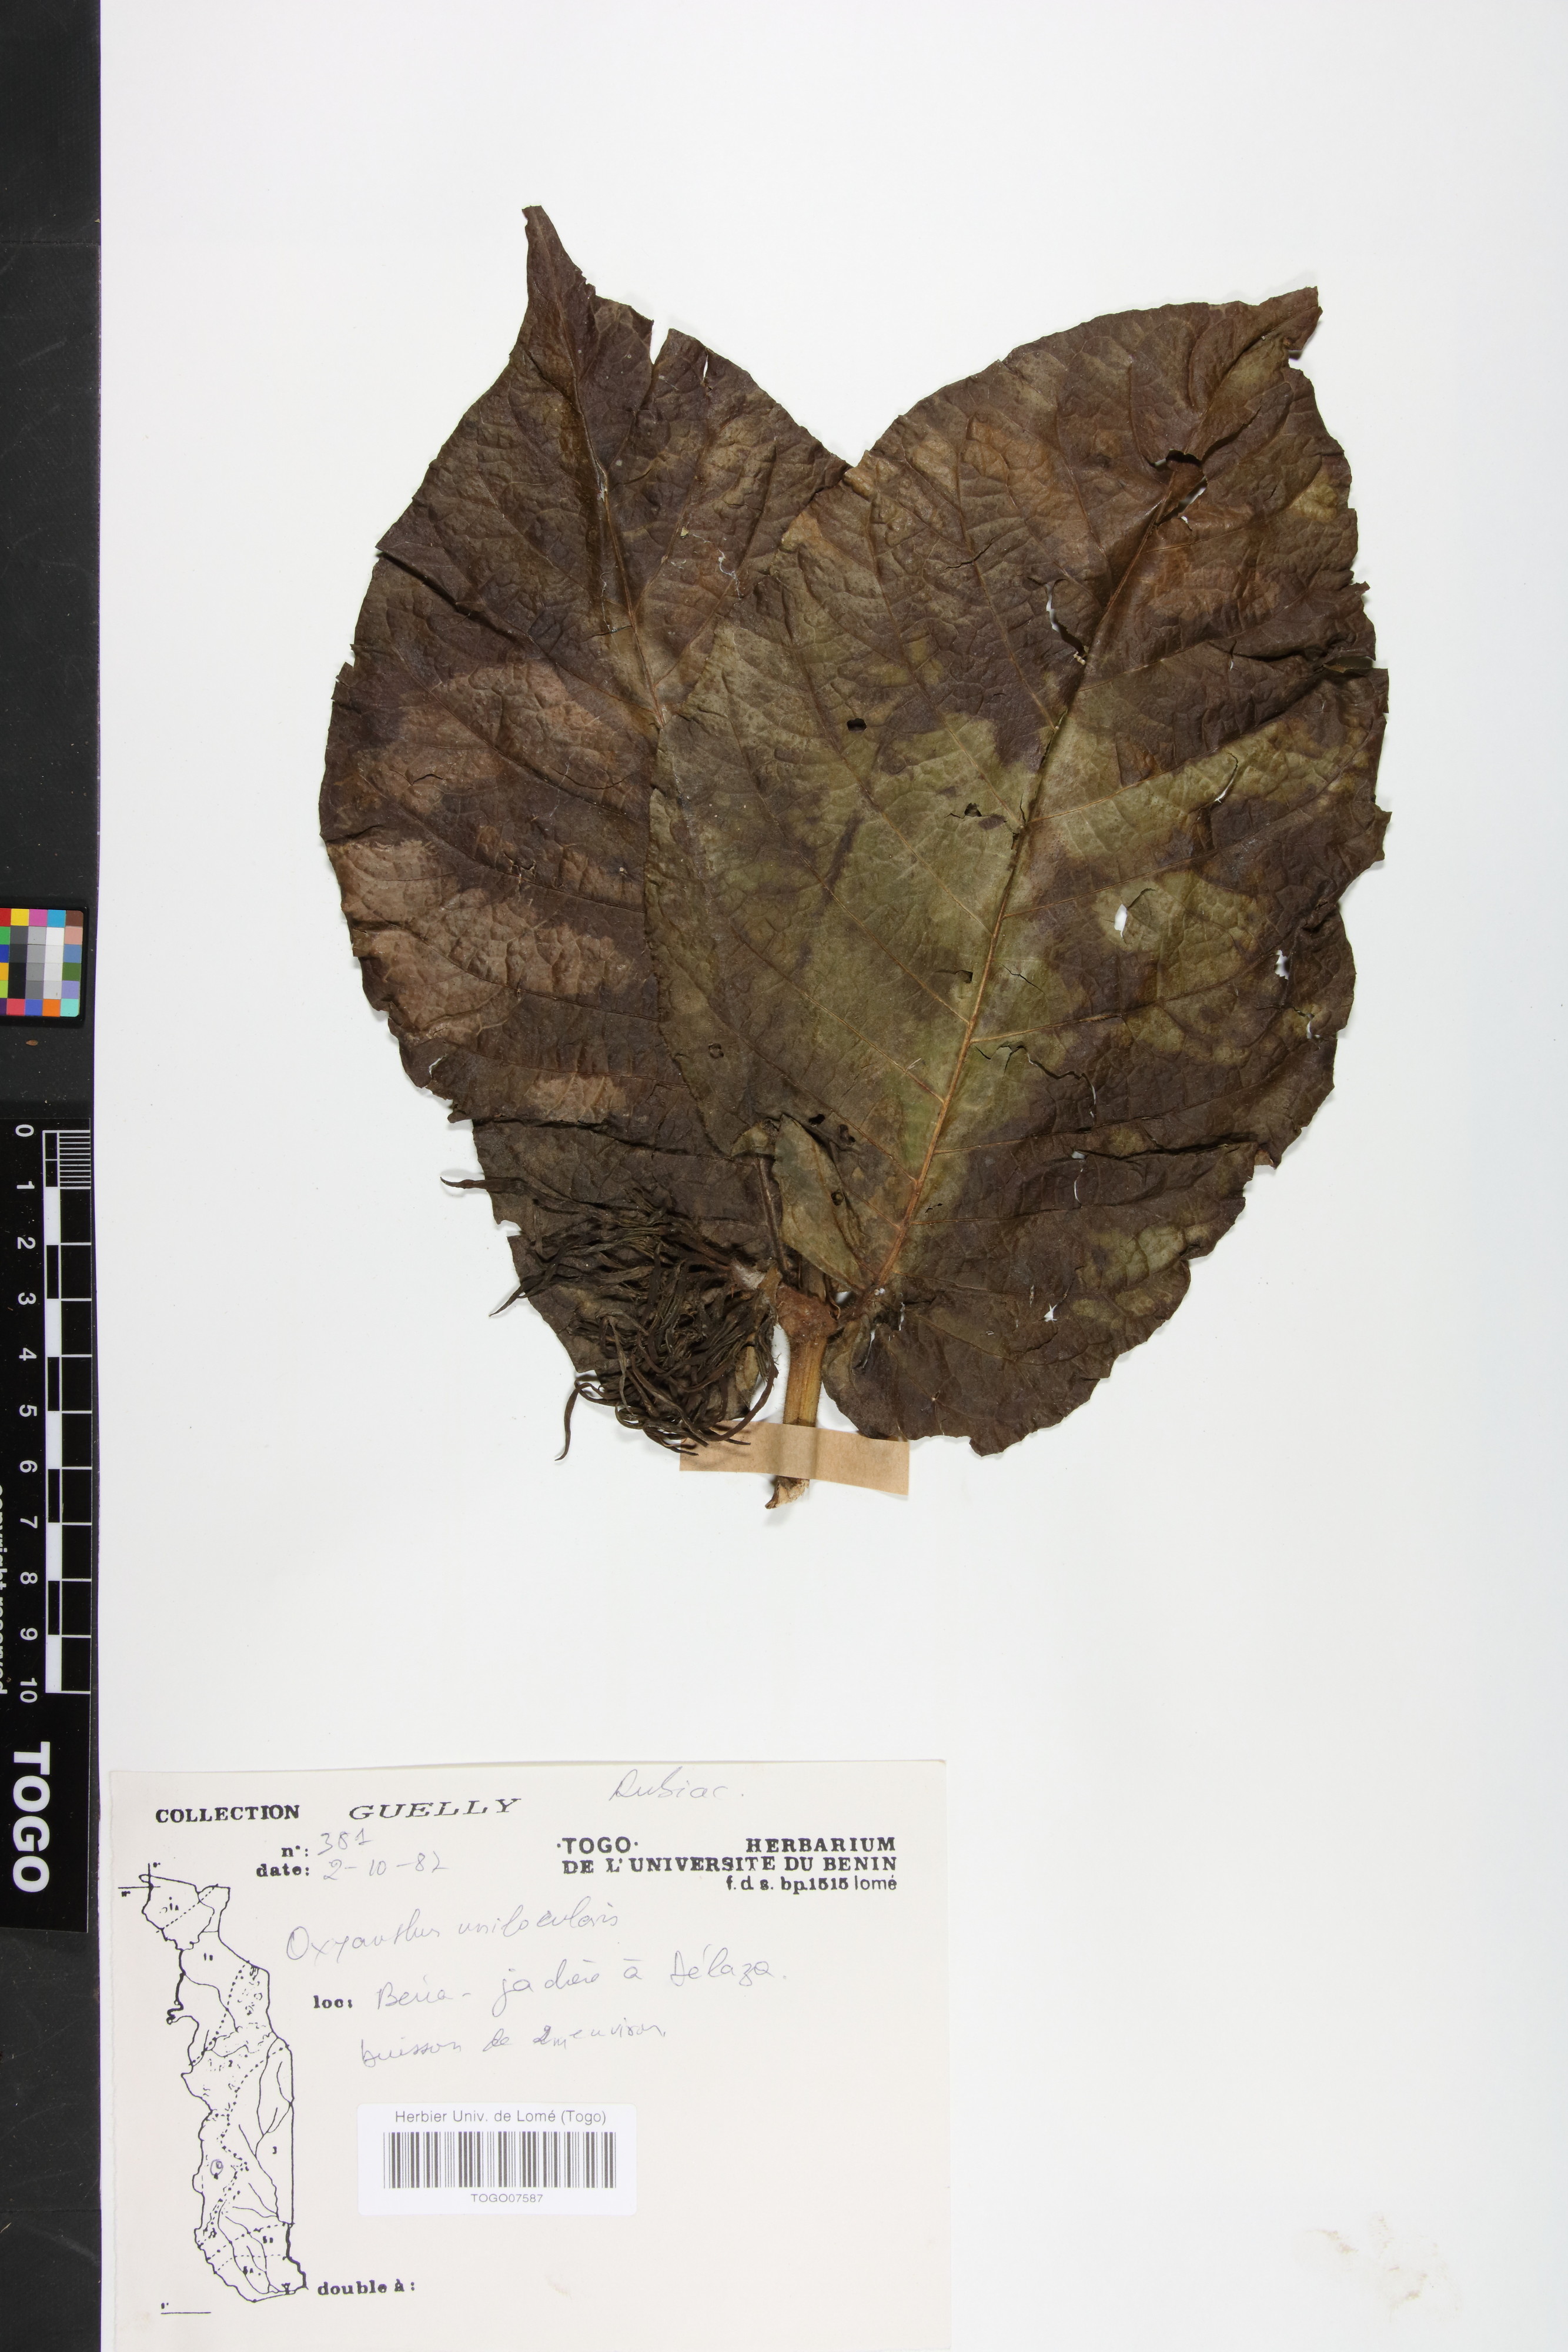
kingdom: Plantae
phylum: Tracheophyta
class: Magnoliopsida
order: Gentianales
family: Rubiaceae
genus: Oxyanthus
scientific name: Oxyanthus unilocularis
